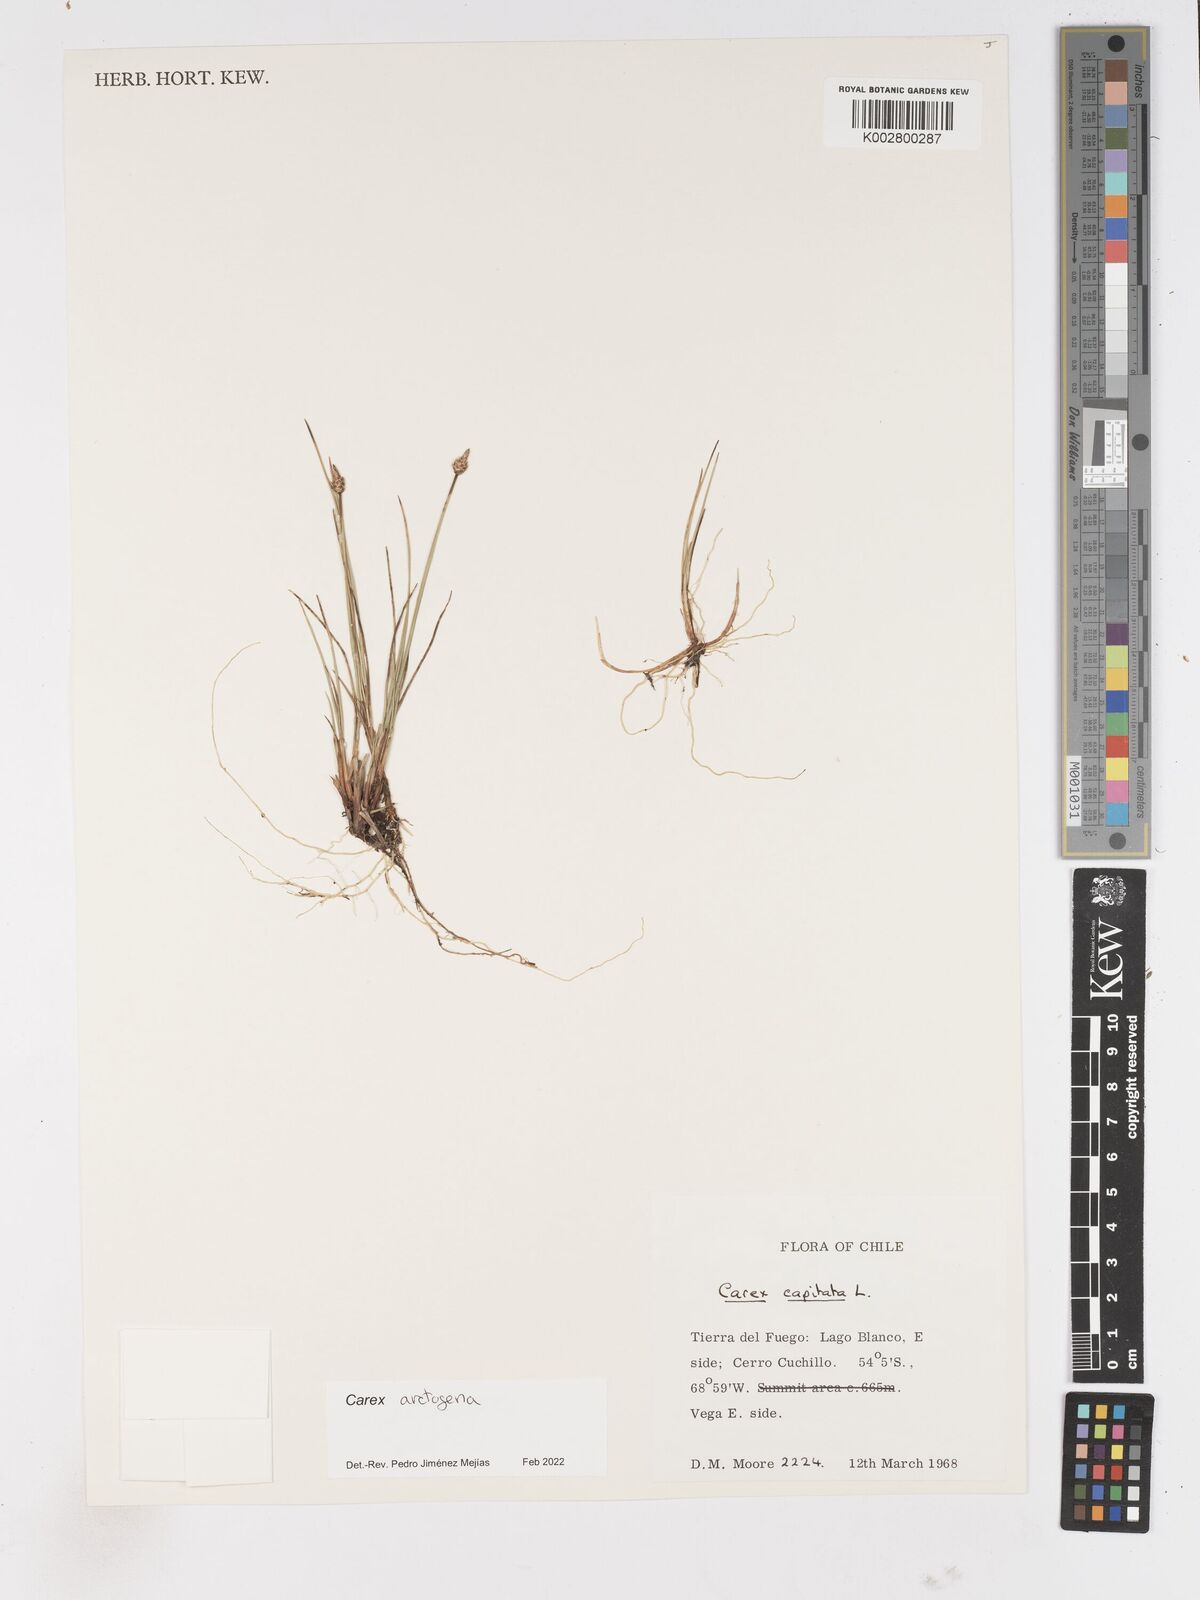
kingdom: Plantae
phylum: Tracheophyta
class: Liliopsida
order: Poales
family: Cyperaceae
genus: Carex
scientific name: Carex arctogena
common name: Black sedge
